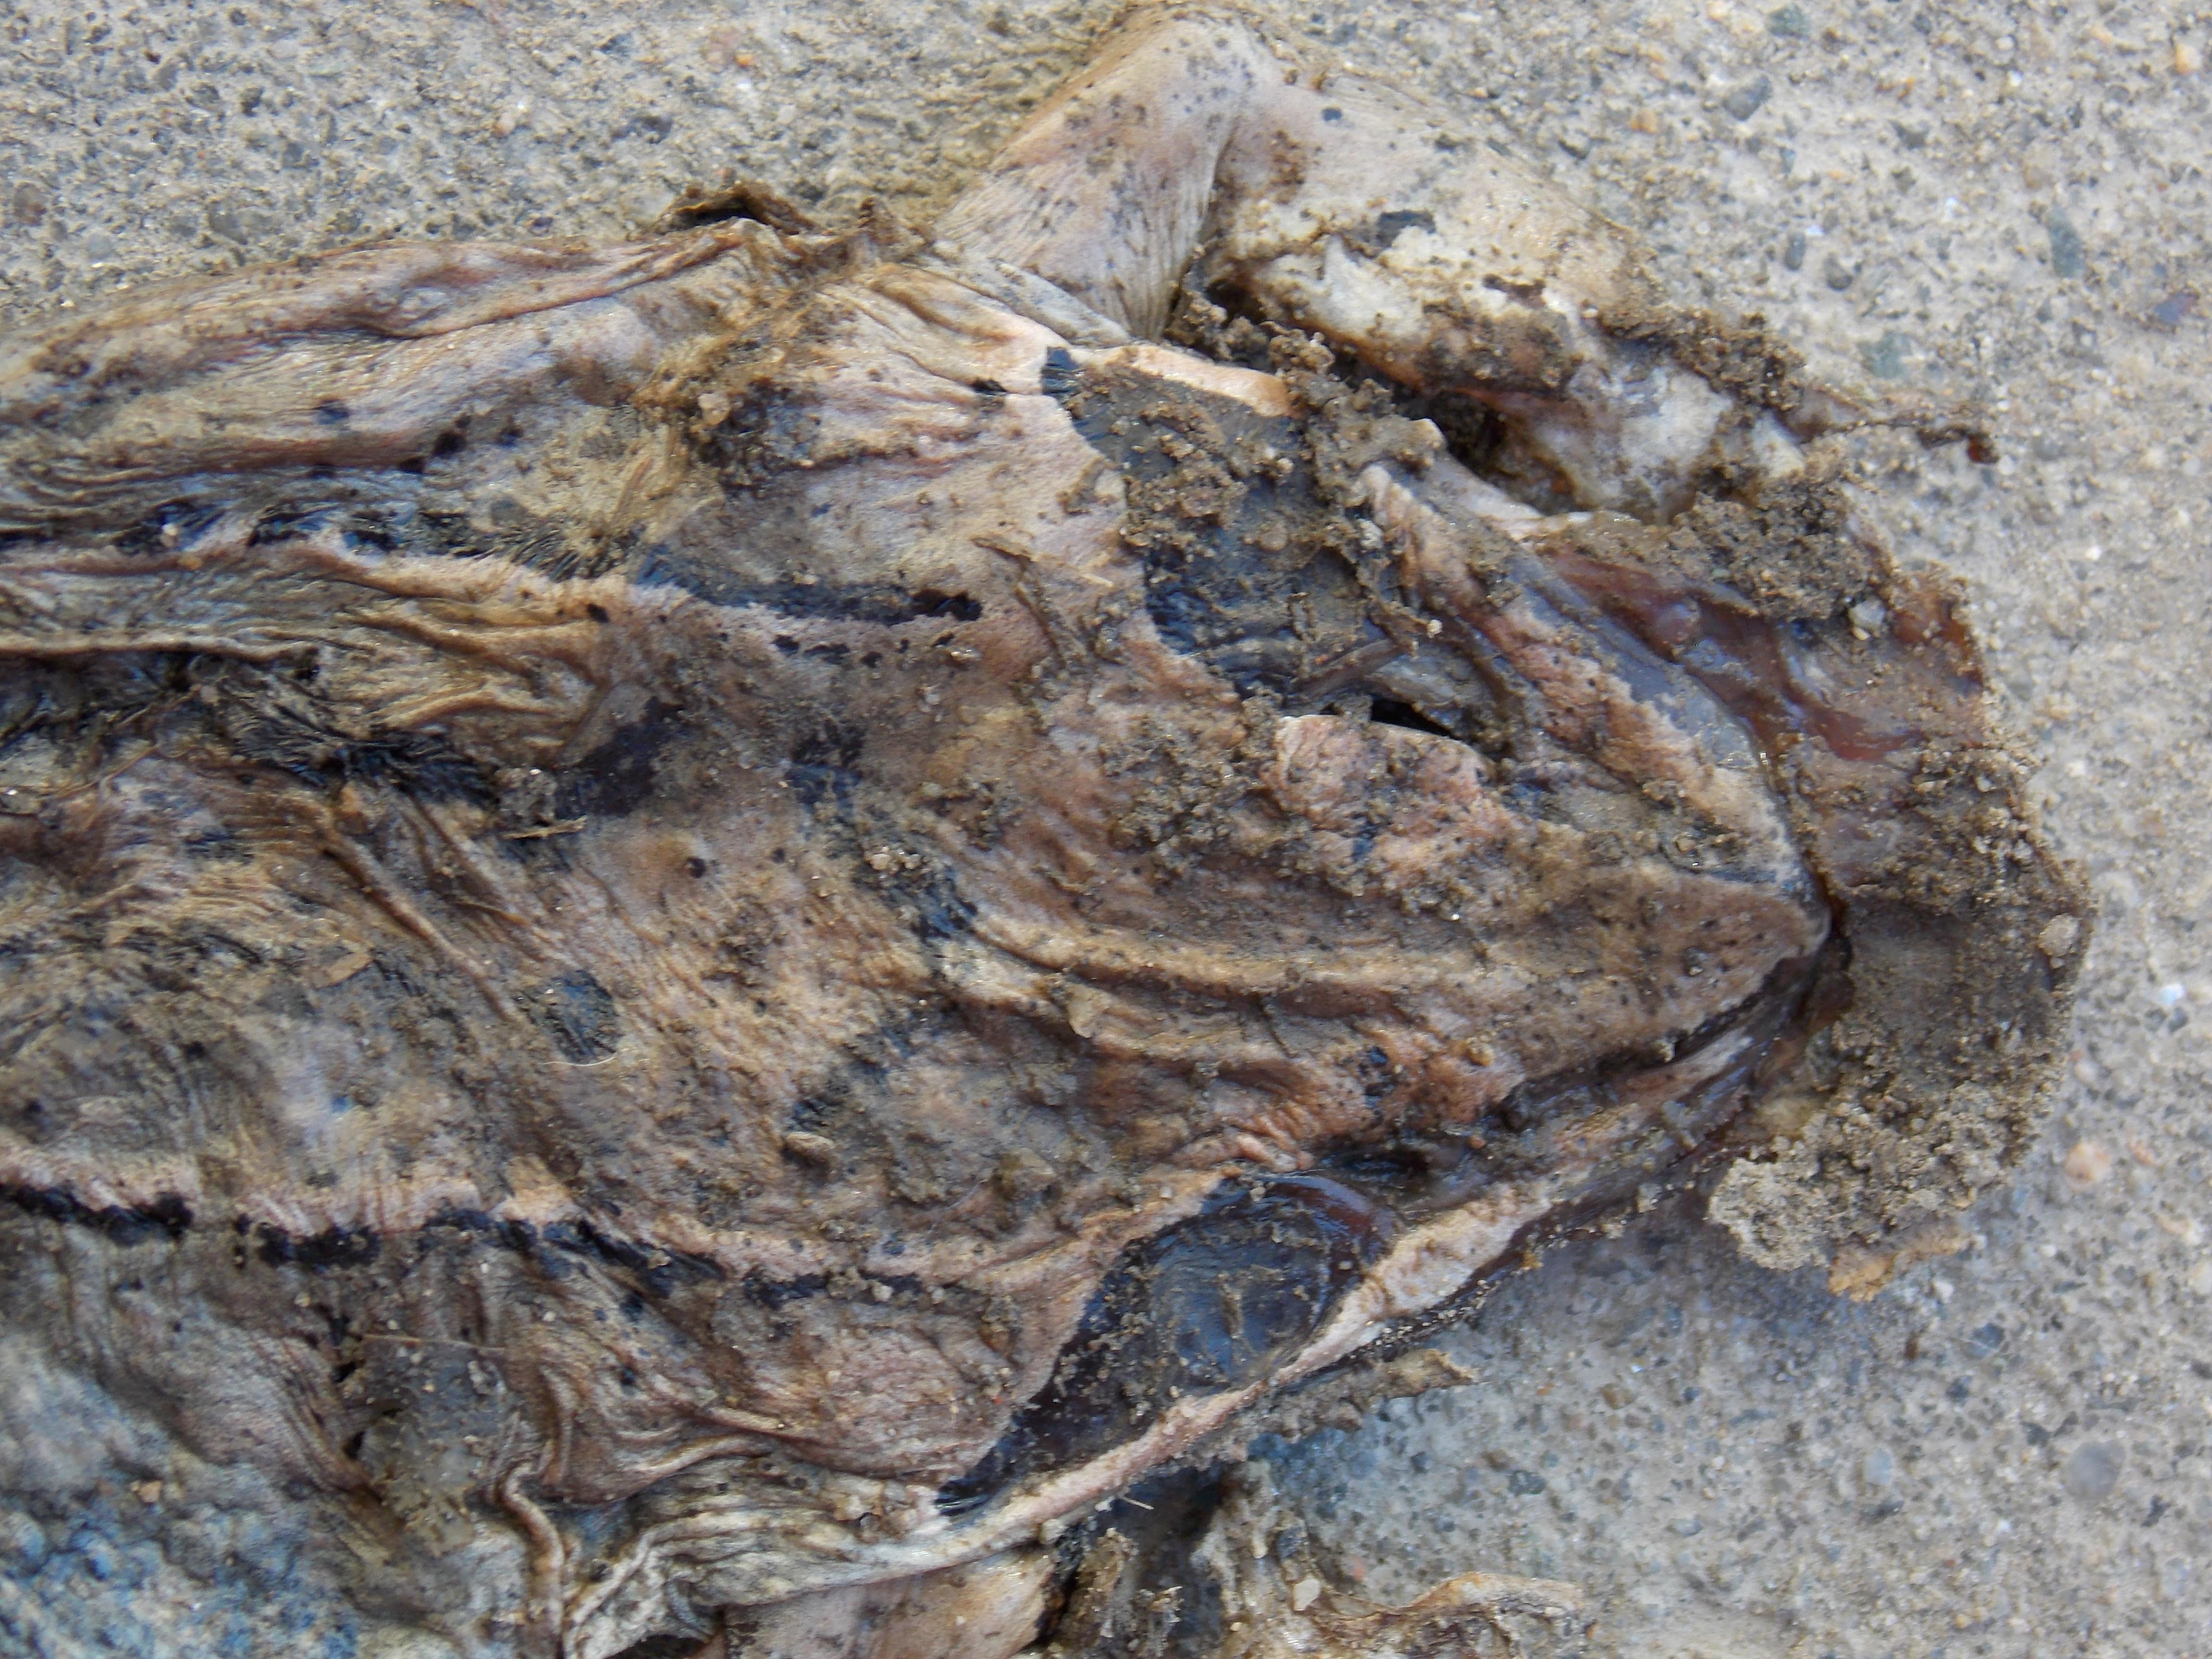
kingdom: Animalia
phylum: Chordata
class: Amphibia
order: Anura
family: Ranidae
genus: Rana
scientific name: Rana temporaria
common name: Common frog
